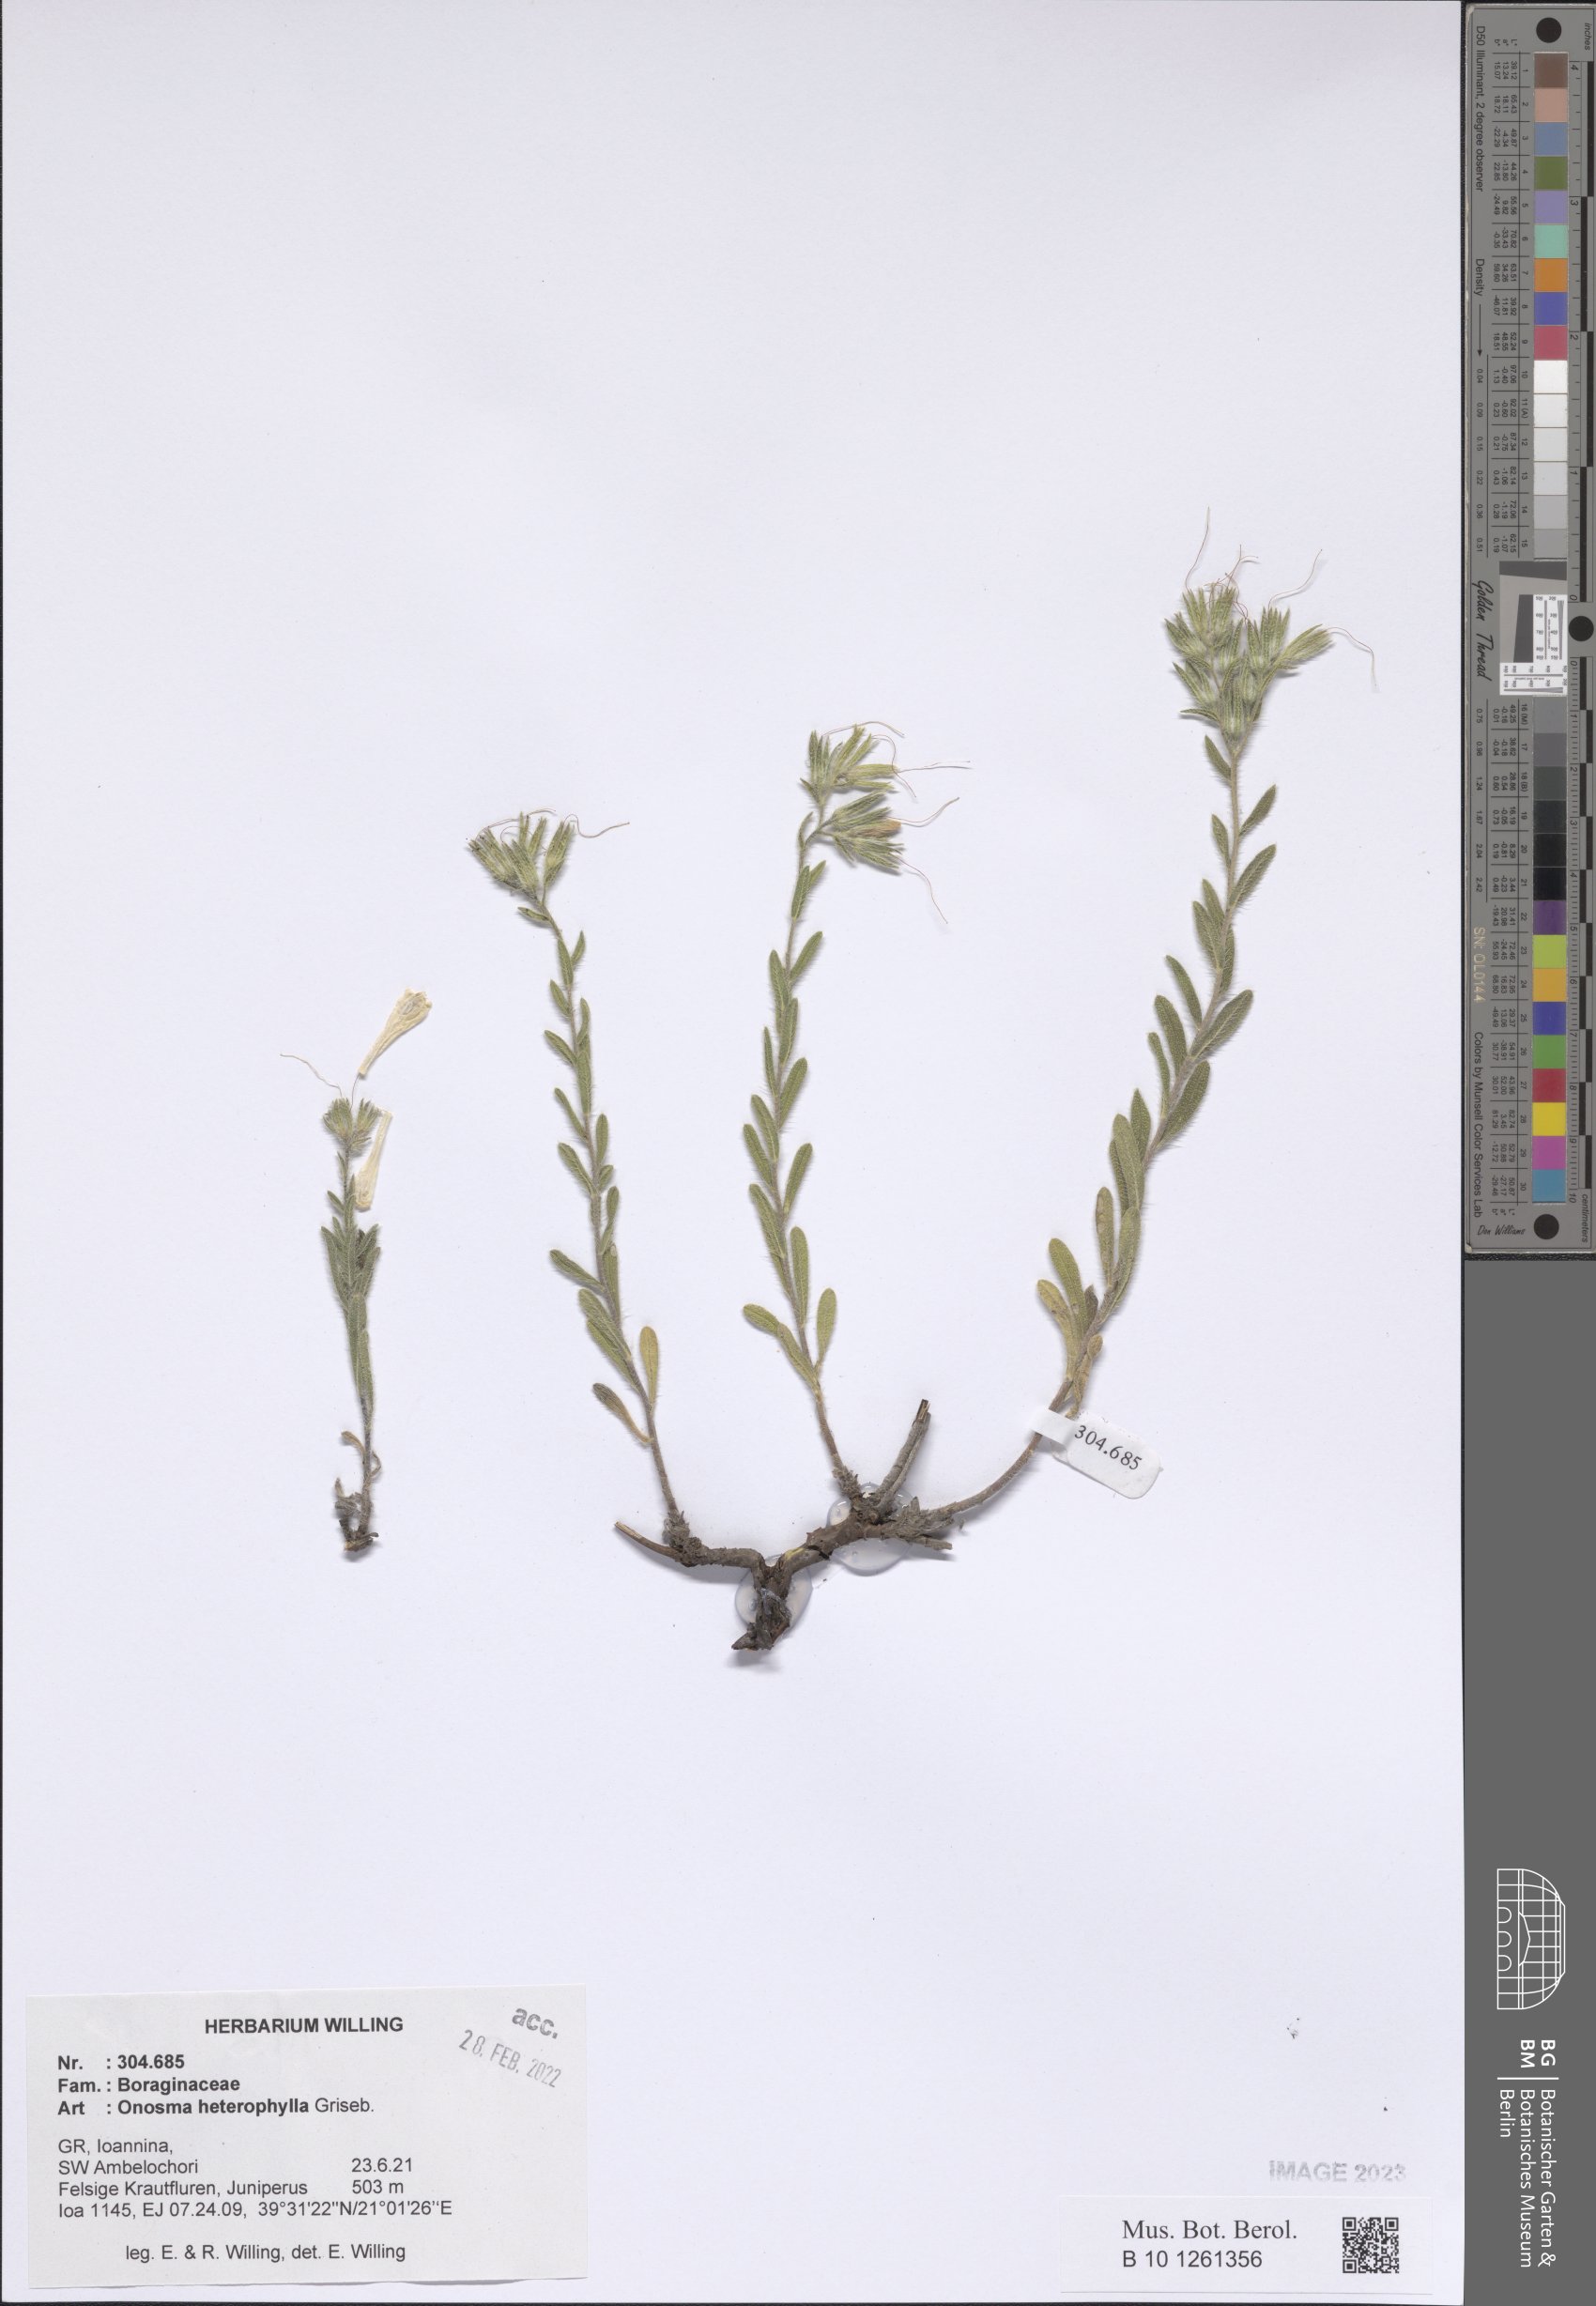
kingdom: Plantae
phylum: Tracheophyta
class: Magnoliopsida
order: Boraginales
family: Boraginaceae
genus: Onosma
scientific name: Onosma heterophylla
